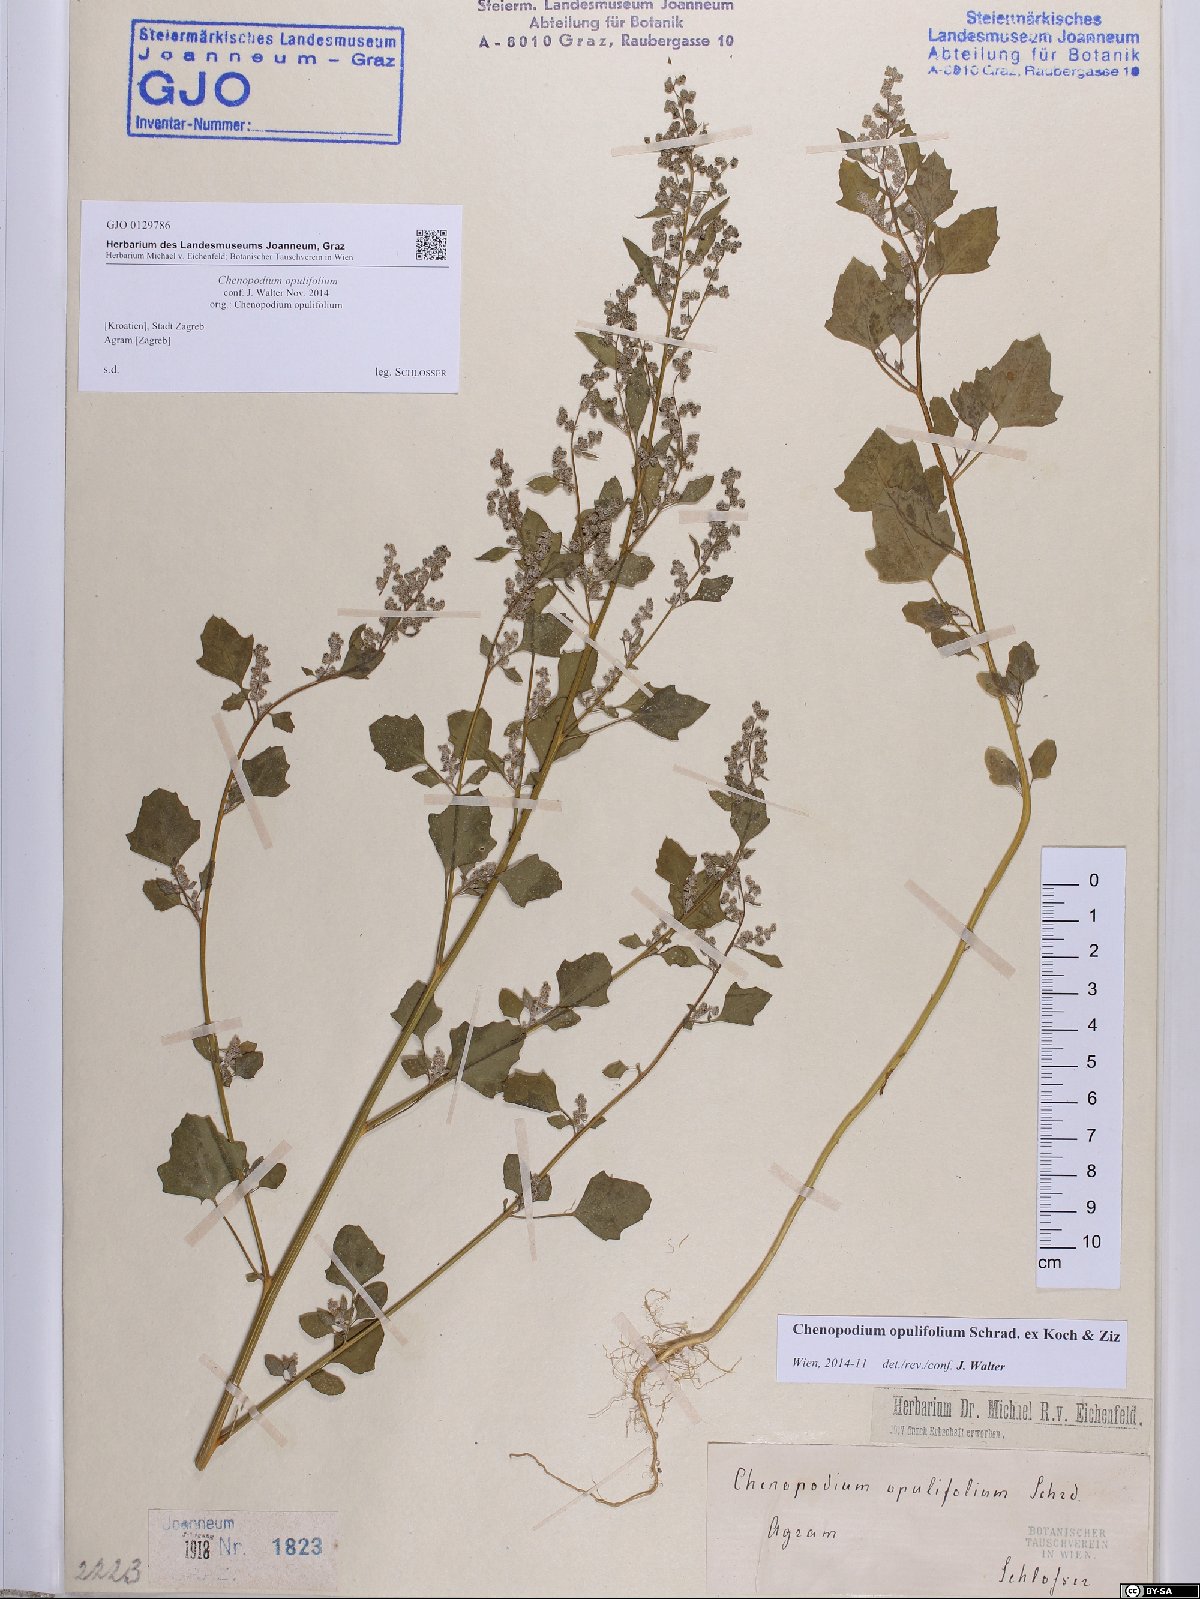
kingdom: Plantae
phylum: Tracheophyta
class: Magnoliopsida
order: Caryophyllales
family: Amaranthaceae
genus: Chenopodium
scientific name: Chenopodium opulifolium
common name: Grey goosefoot
